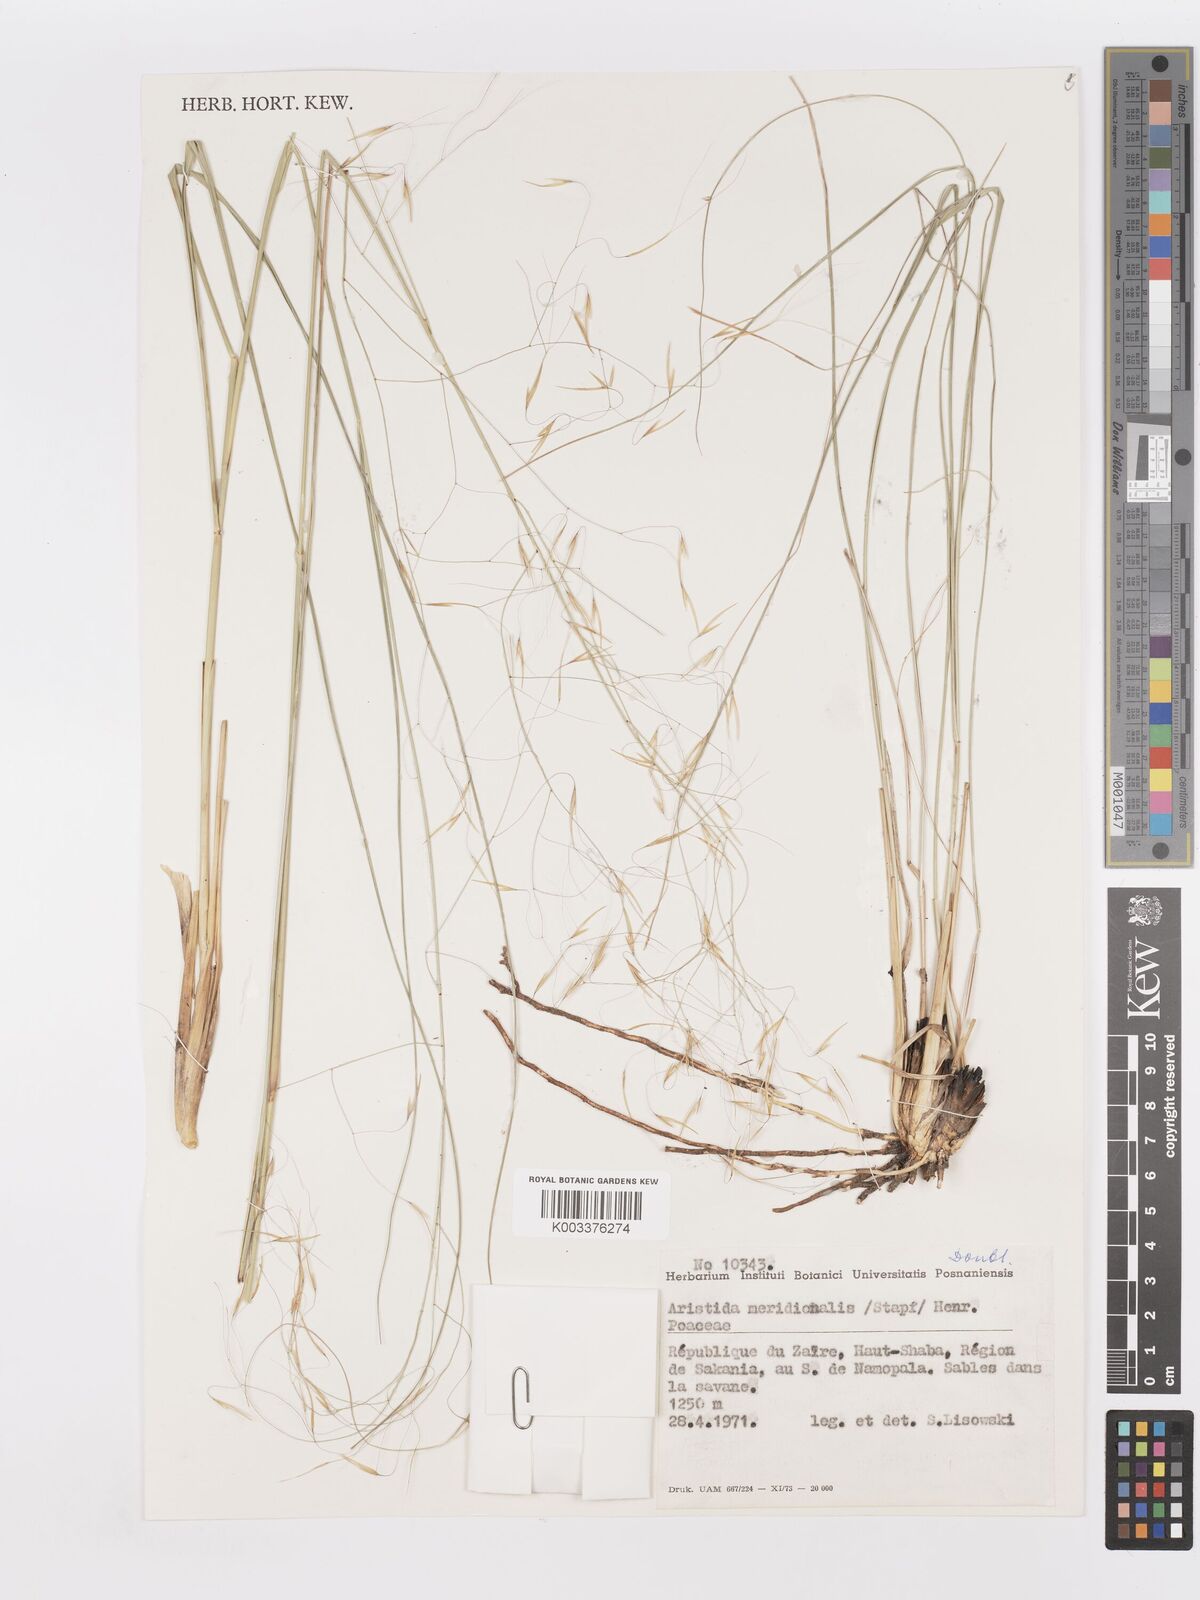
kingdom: Plantae
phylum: Tracheophyta
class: Liliopsida
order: Poales
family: Poaceae
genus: Aristida
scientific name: Aristida meridionalis
